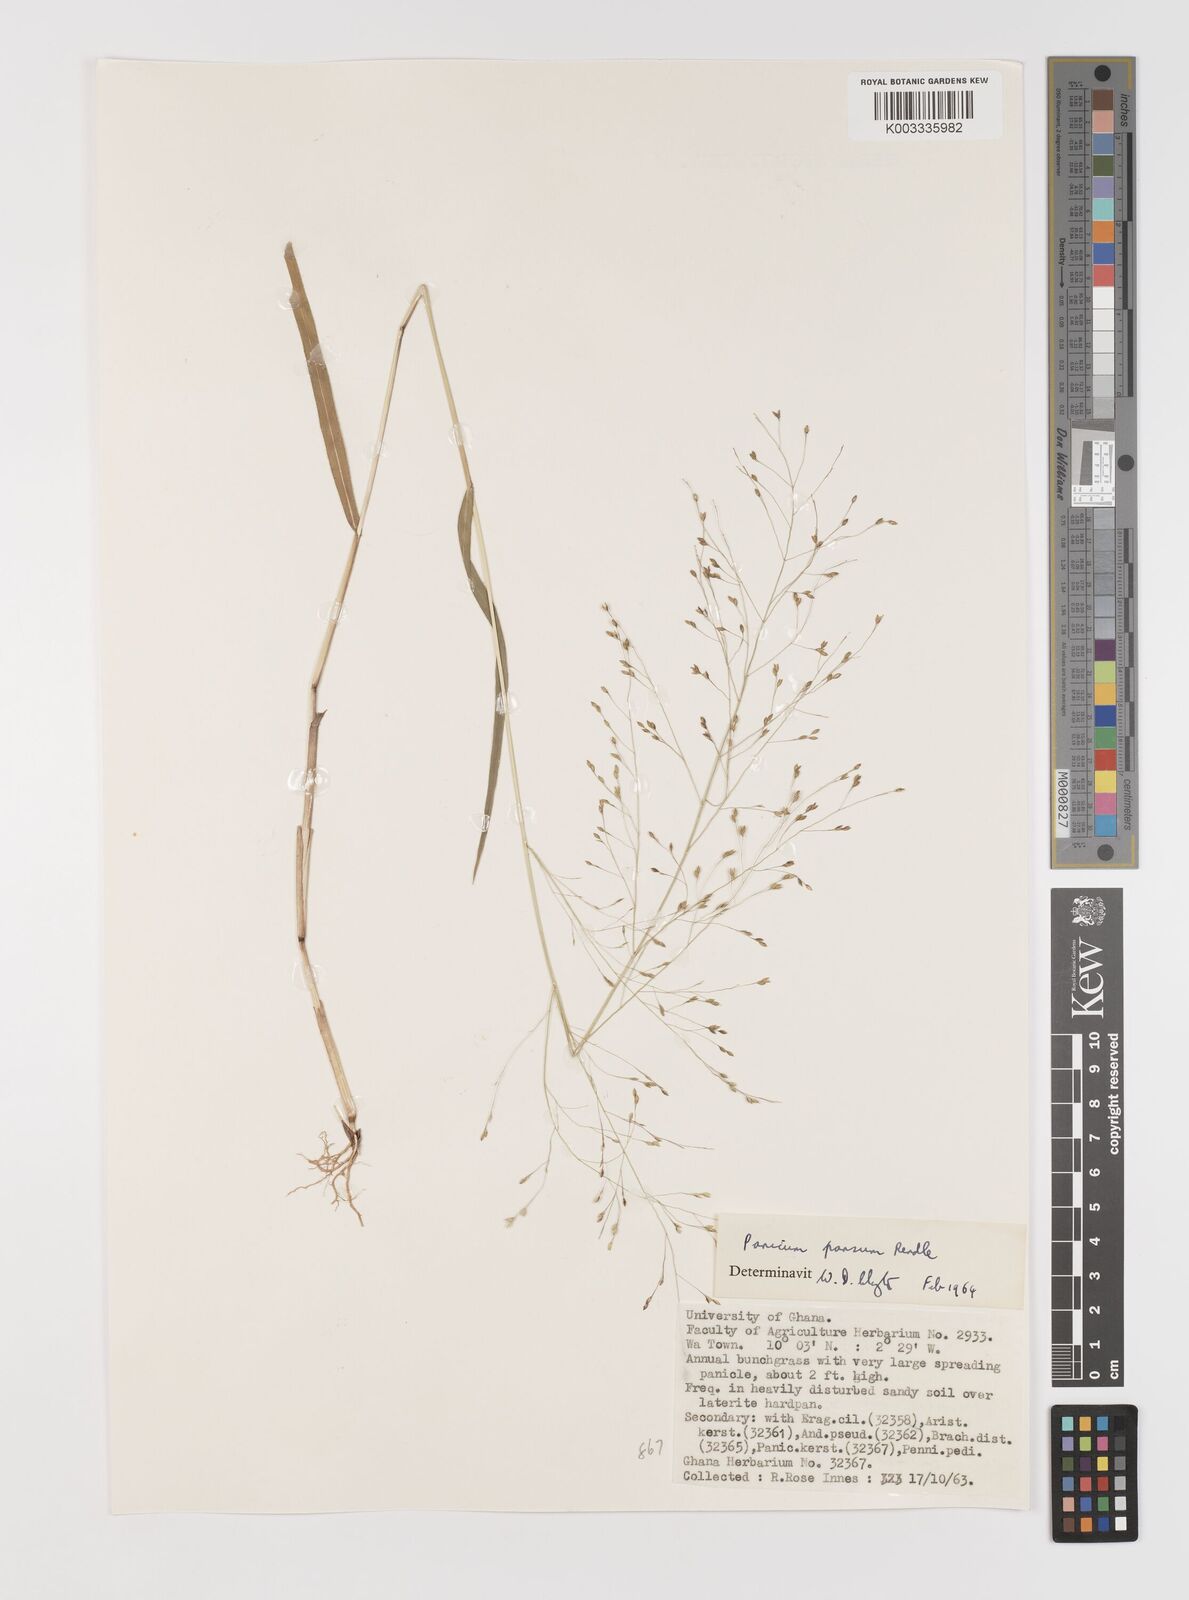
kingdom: Plantae
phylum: Tracheophyta
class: Liliopsida
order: Poales
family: Poaceae
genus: Panicum
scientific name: Panicum pansum
